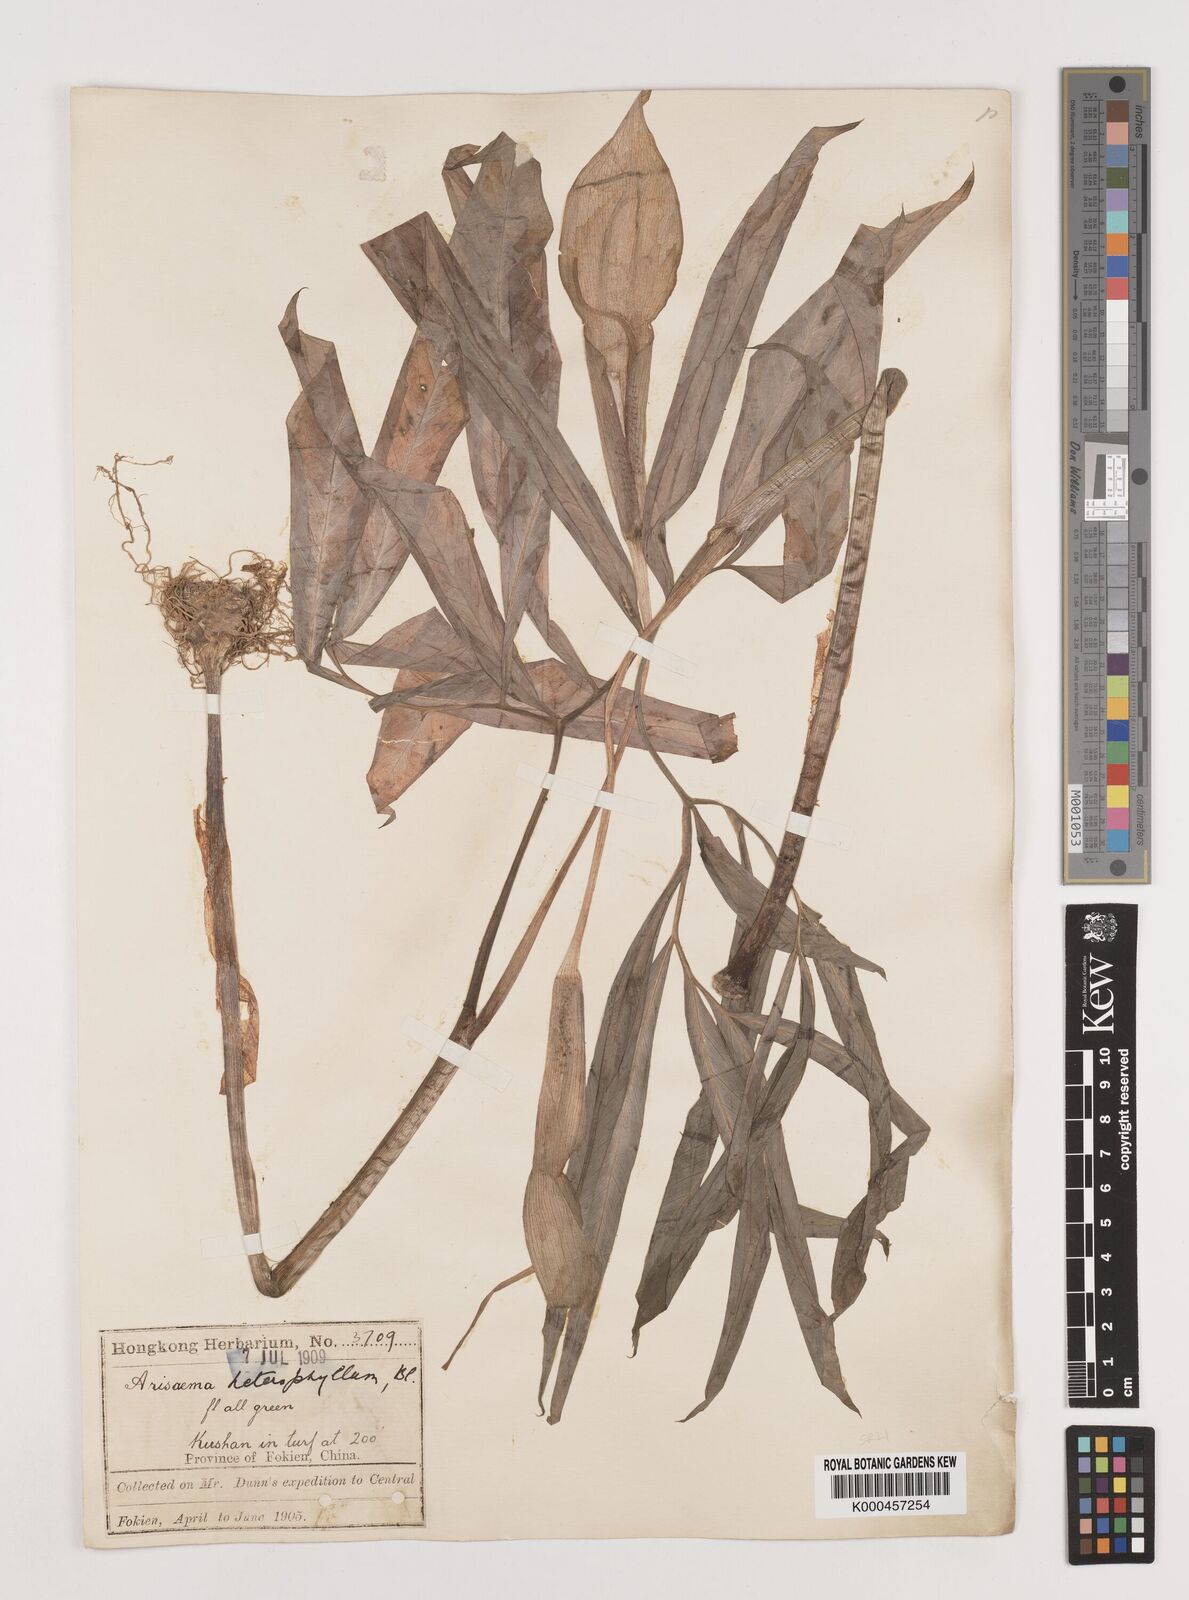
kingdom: Plantae
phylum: Tracheophyta
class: Liliopsida
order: Alismatales
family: Araceae
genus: Arisaema
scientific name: Arisaema heterophyllum
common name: Dancing crane cobra lily
